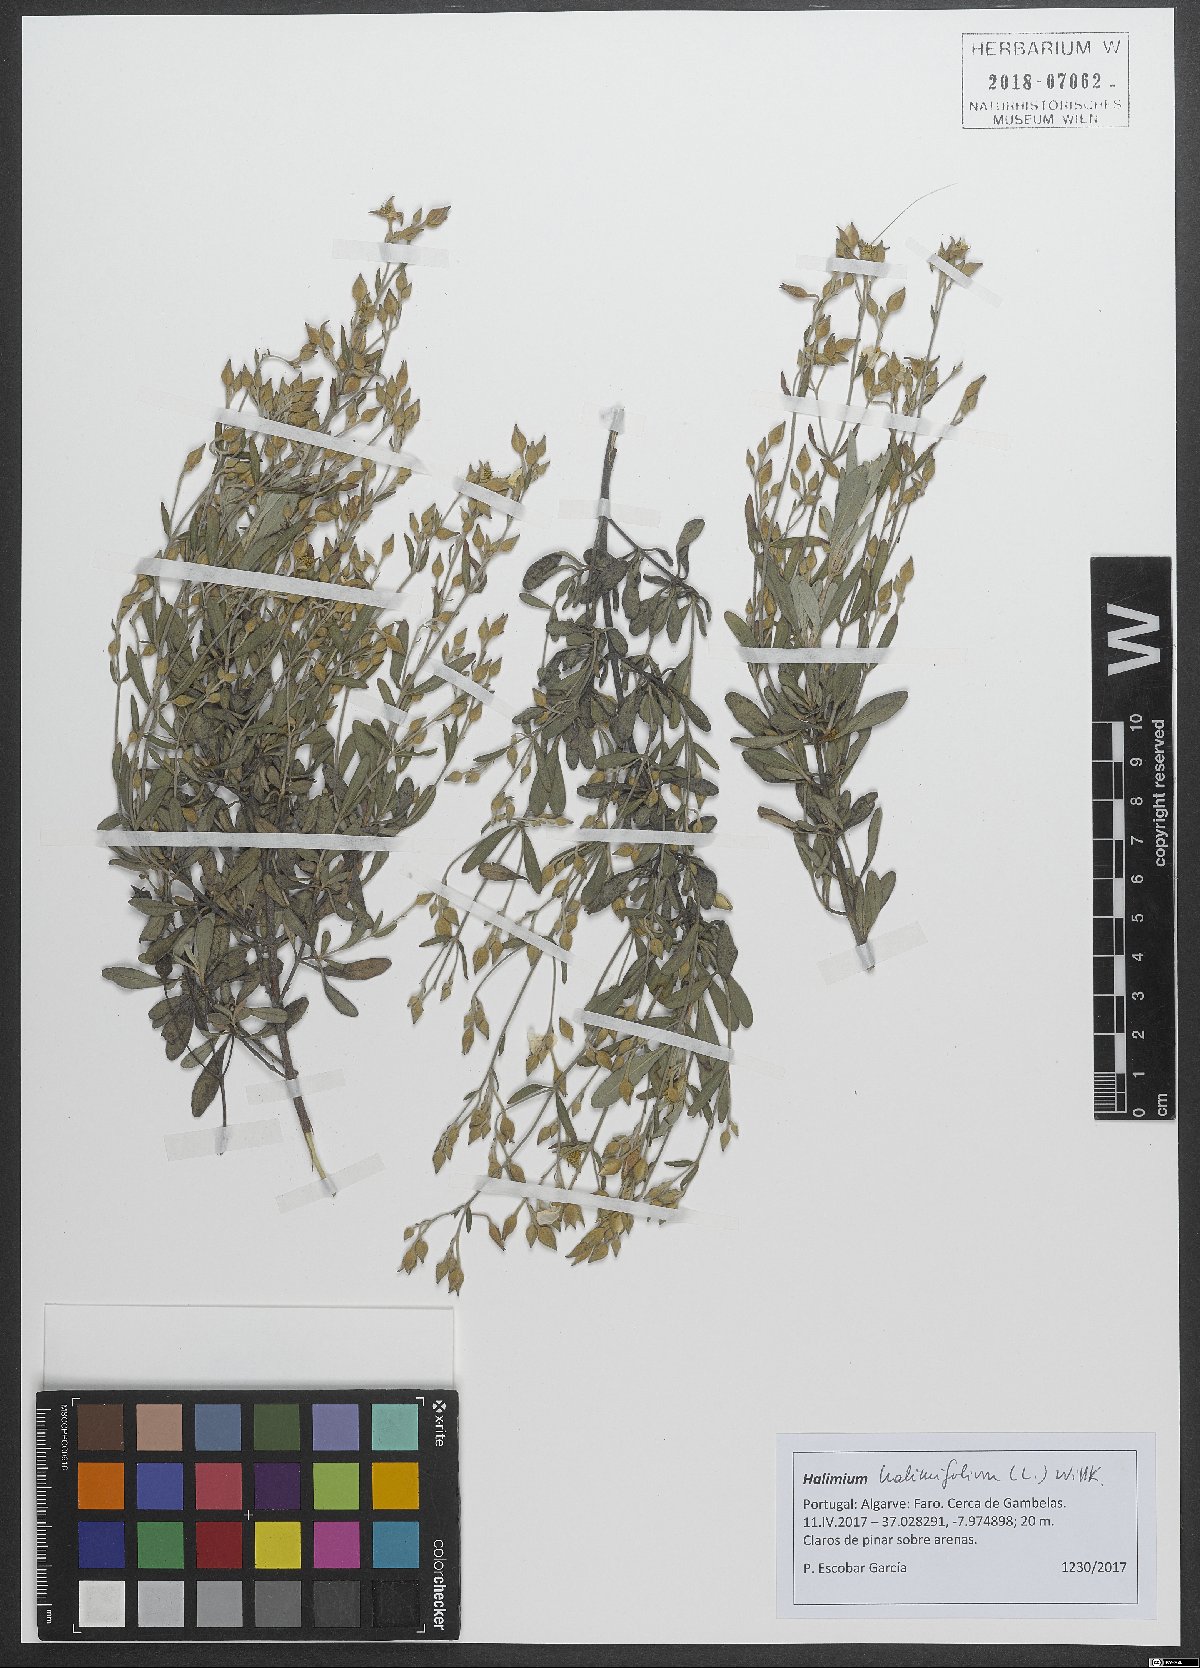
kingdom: Plantae
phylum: Tracheophyta
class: Magnoliopsida
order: Malvales
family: Cistaceae
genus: Halimium
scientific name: Halimium halimifolium
